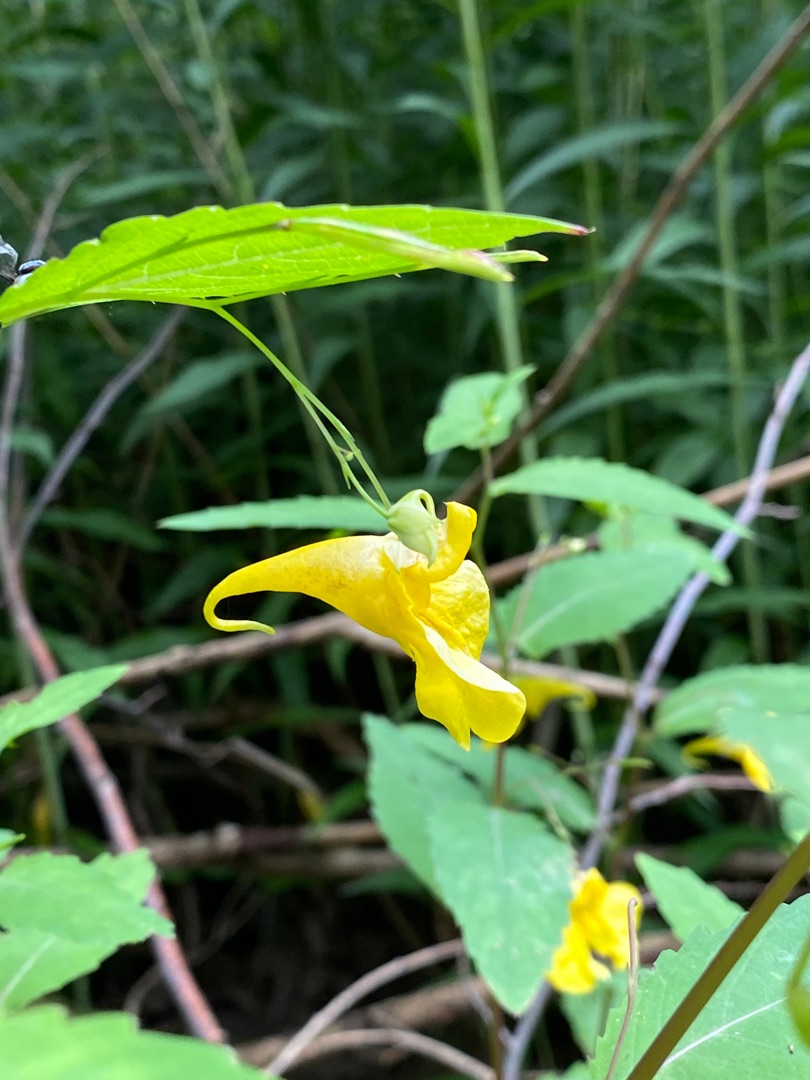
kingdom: Plantae
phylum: Tracheophyta
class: Magnoliopsida
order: Ericales
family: Balsaminaceae
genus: Impatiens
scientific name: Impatiens noli-tangere
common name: Spring-balsamin
